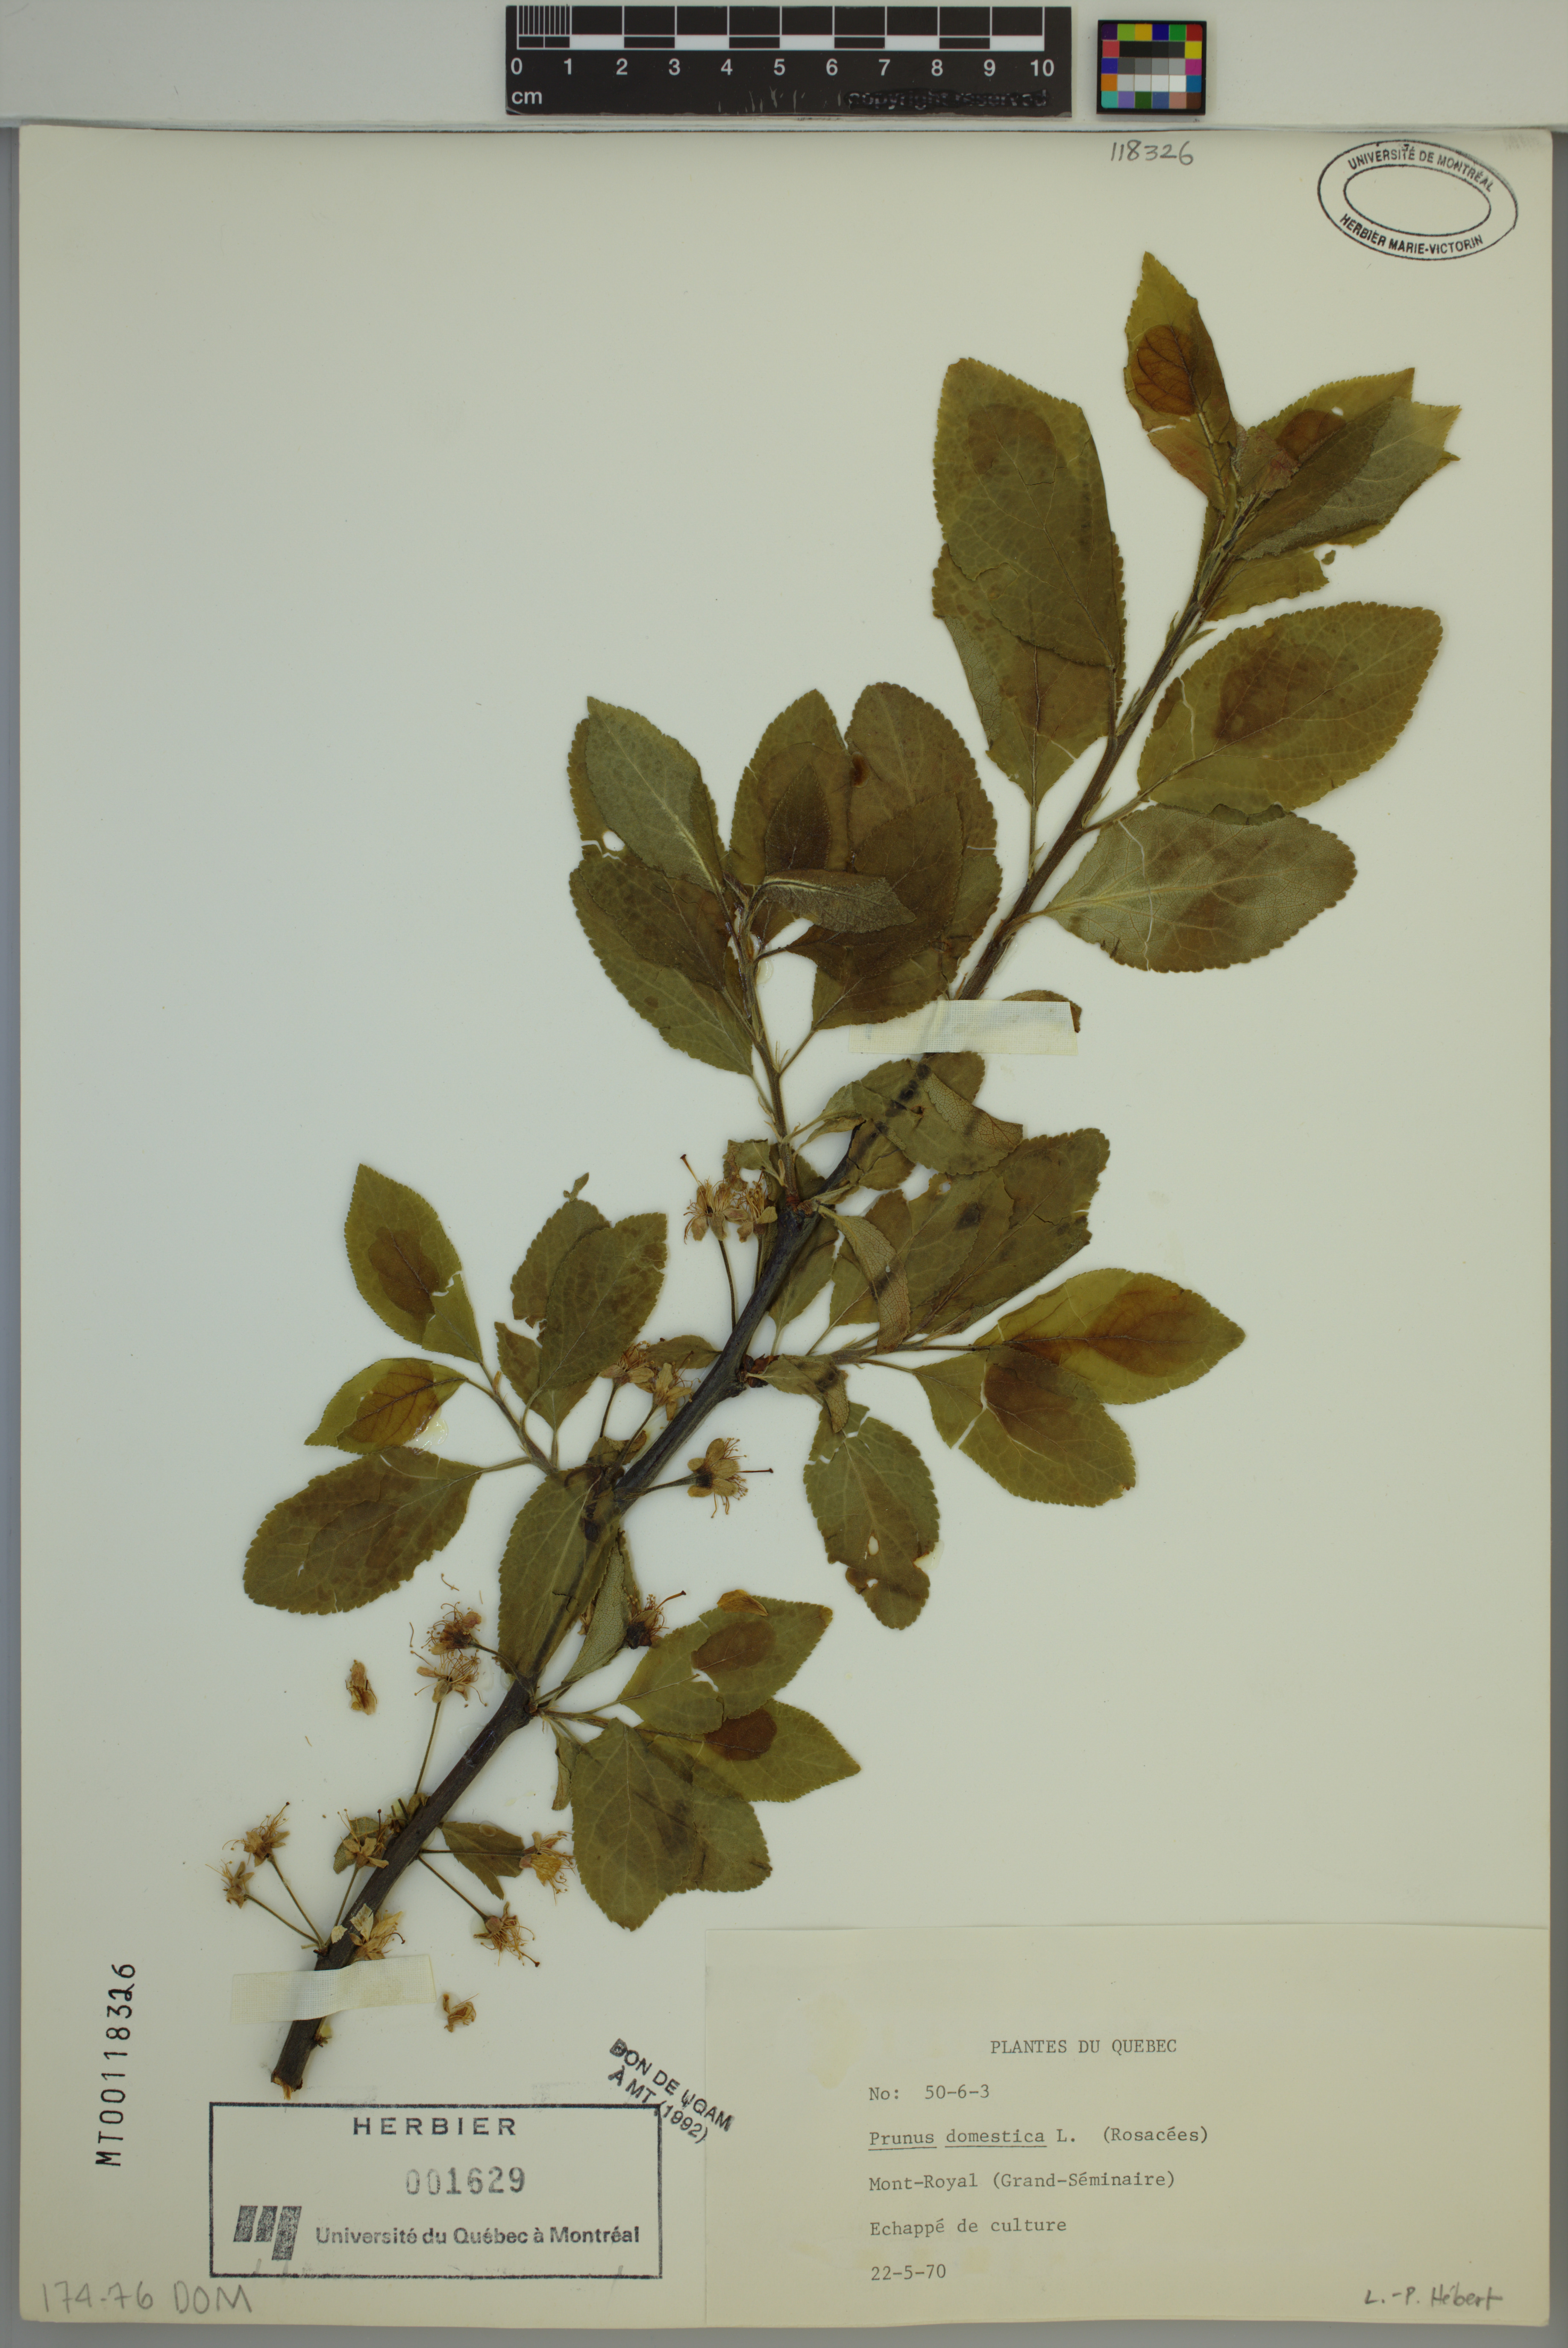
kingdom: Plantae
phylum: Tracheophyta
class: Magnoliopsida
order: Rosales
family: Rosaceae
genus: Prunus
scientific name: Prunus domestica
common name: Wild plum
